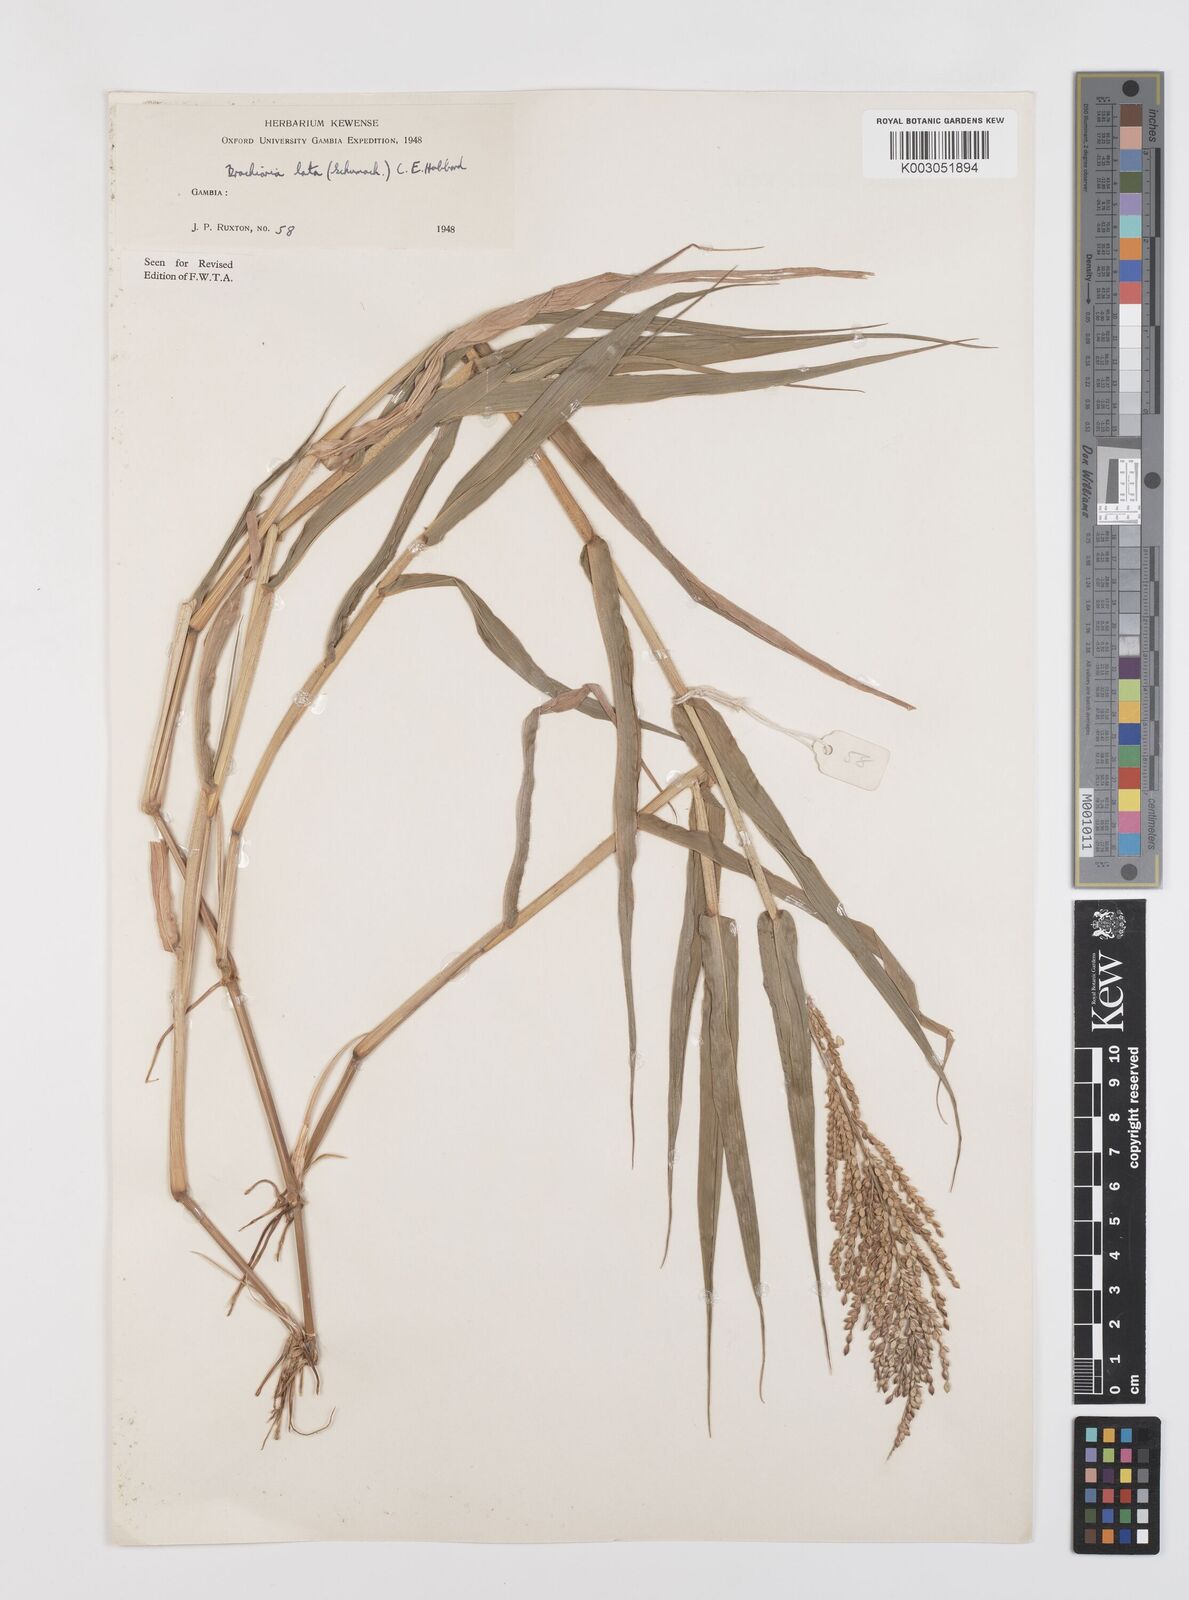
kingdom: Plantae
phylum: Tracheophyta
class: Liliopsida
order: Poales
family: Poaceae
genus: Urochloa
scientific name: Urochloa lata
